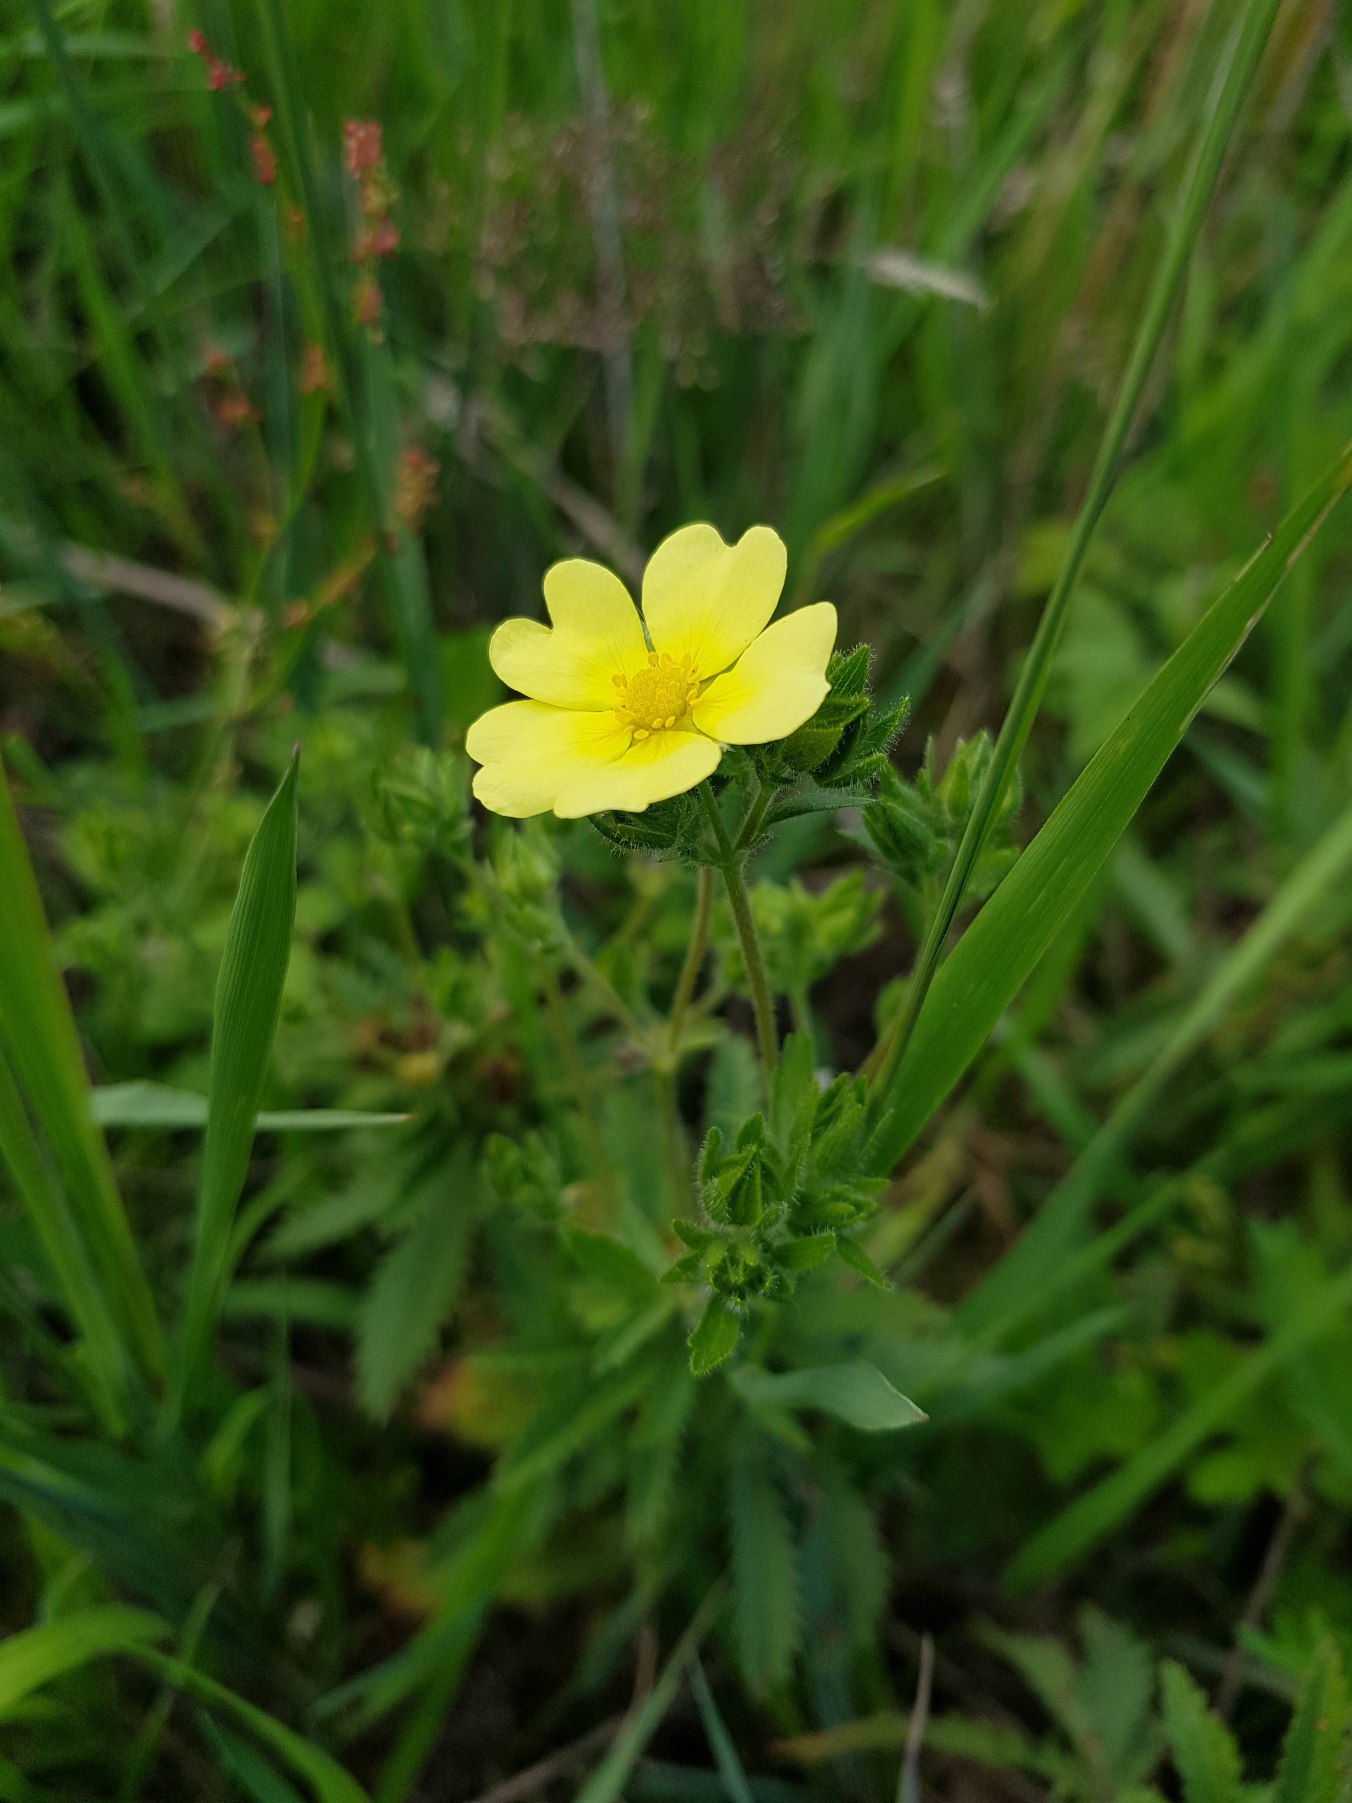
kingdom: Plantae
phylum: Tracheophyta
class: Magnoliopsida
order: Rosales
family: Rosaceae
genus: Potentilla
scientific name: Potentilla recta
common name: Rank potentil
